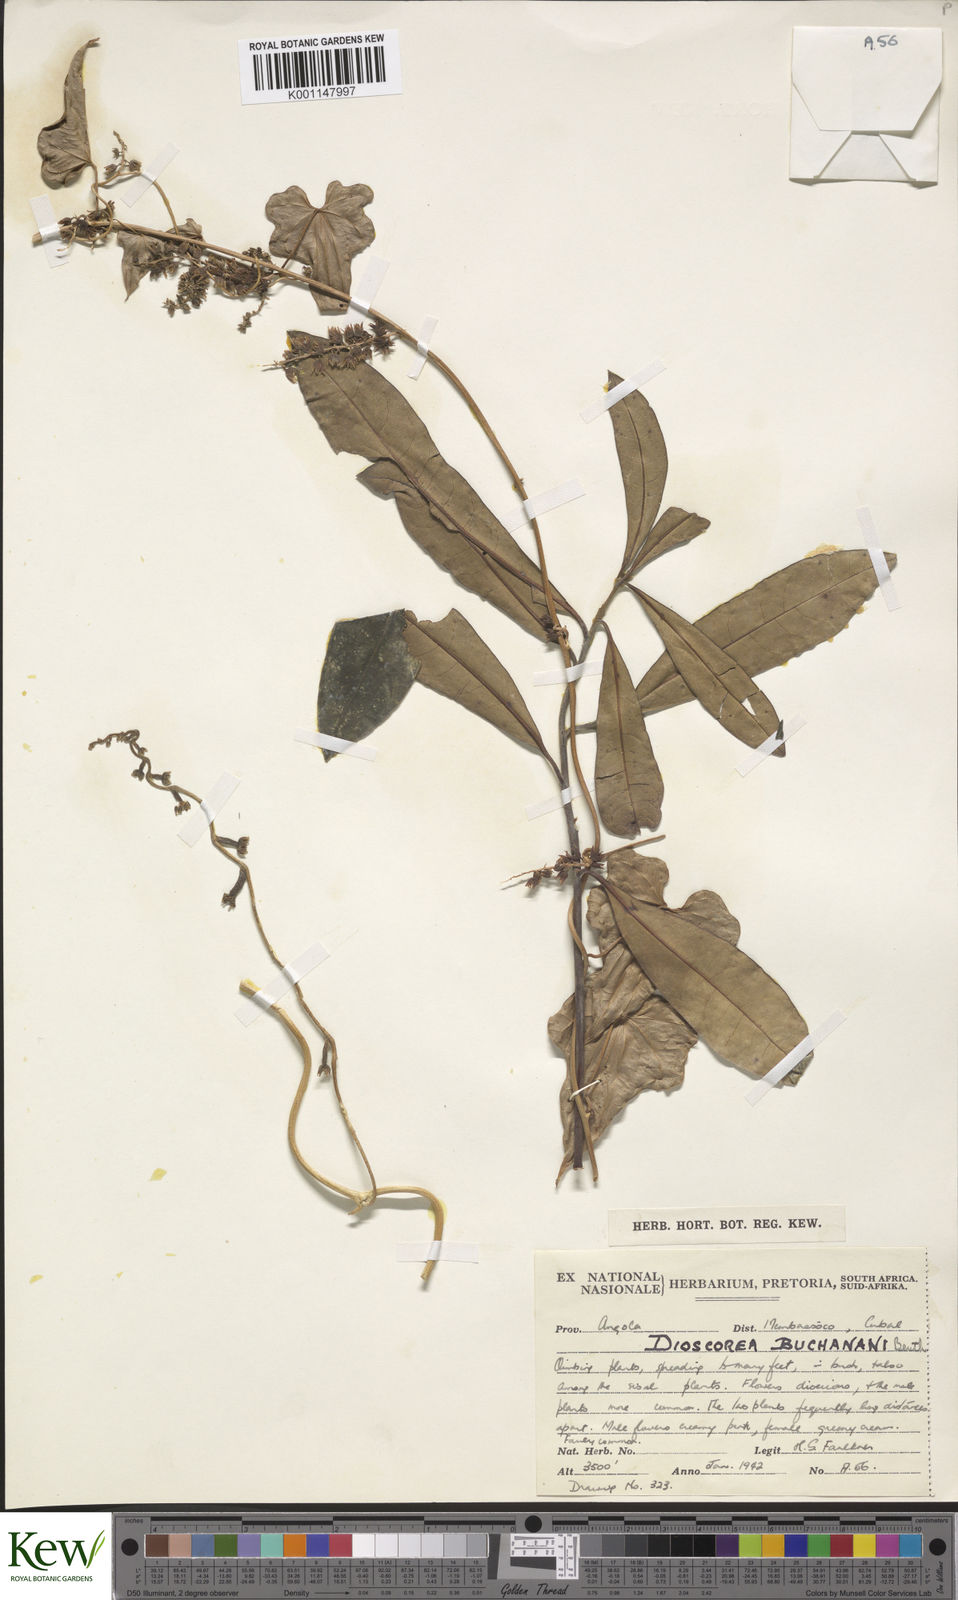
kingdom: Plantae
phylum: Tracheophyta
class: Liliopsida
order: Dioscoreales
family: Dioscoreaceae
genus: Dioscorea
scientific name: Dioscorea buchananii
